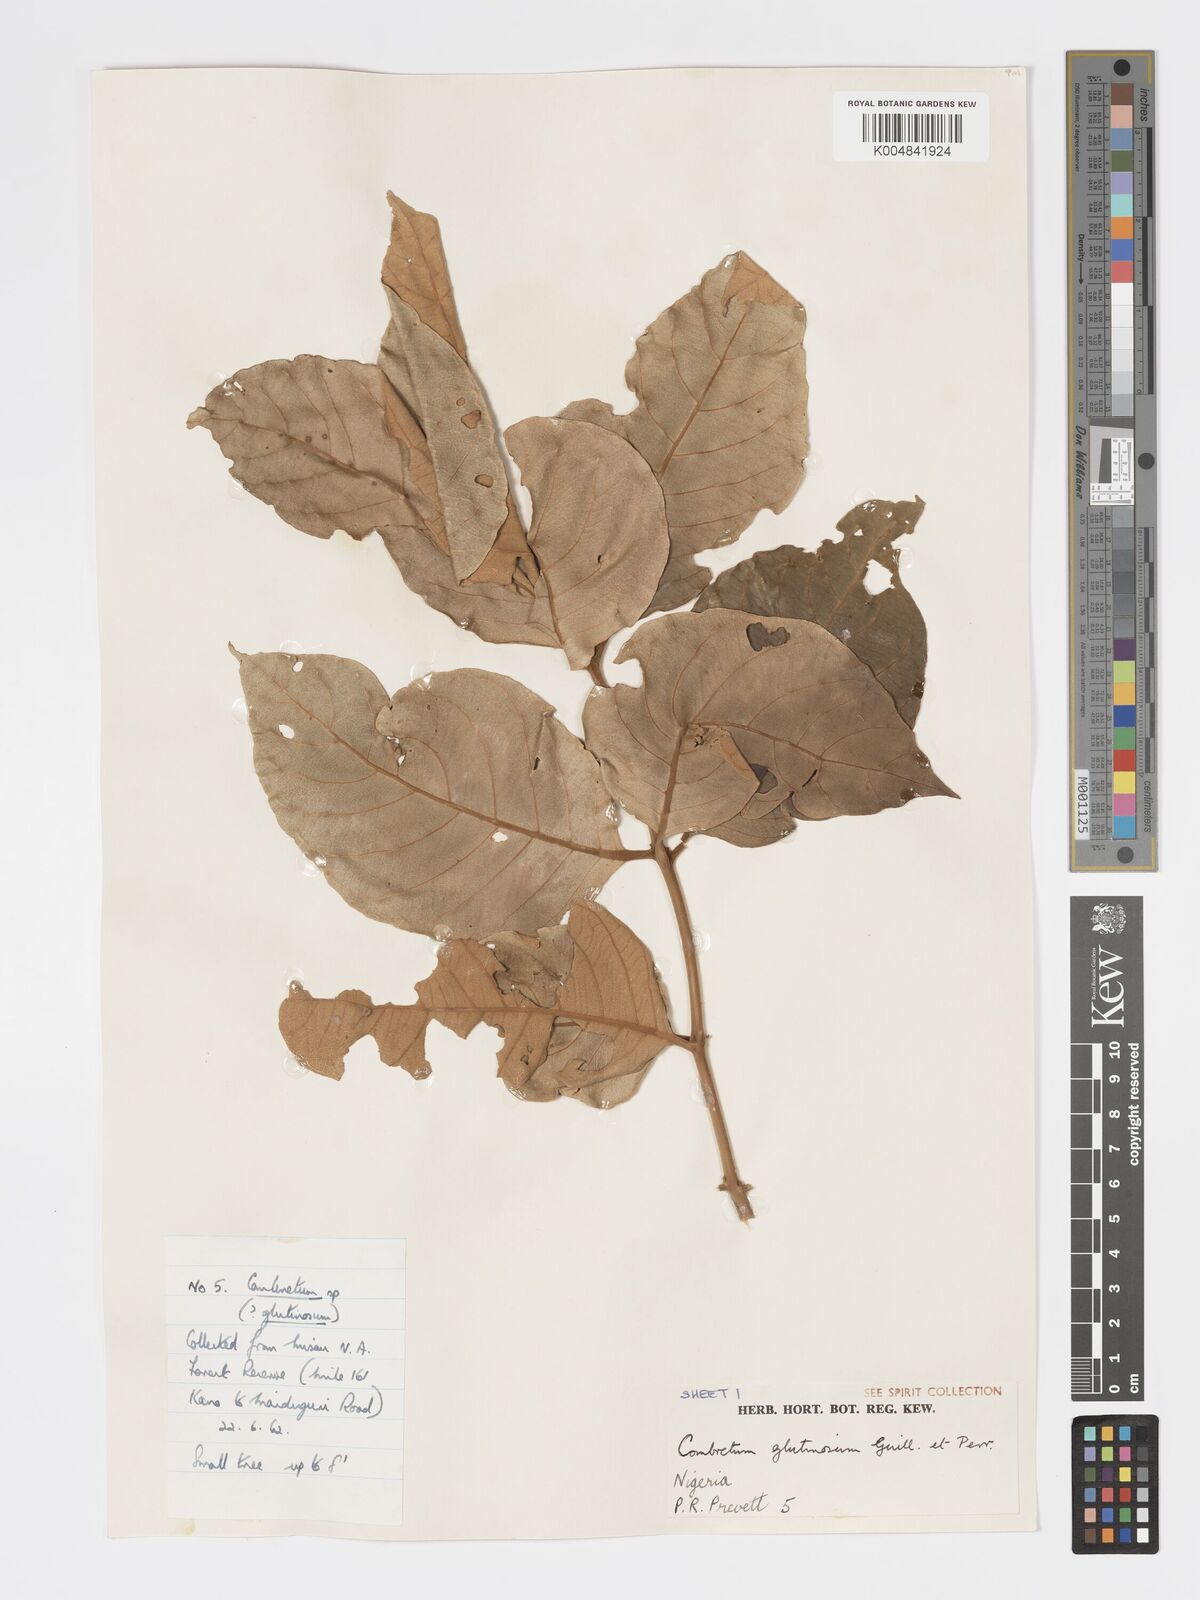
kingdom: Plantae
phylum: Tracheophyta
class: Magnoliopsida
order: Myrtales
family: Combretaceae
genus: Combretum
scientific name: Combretum
